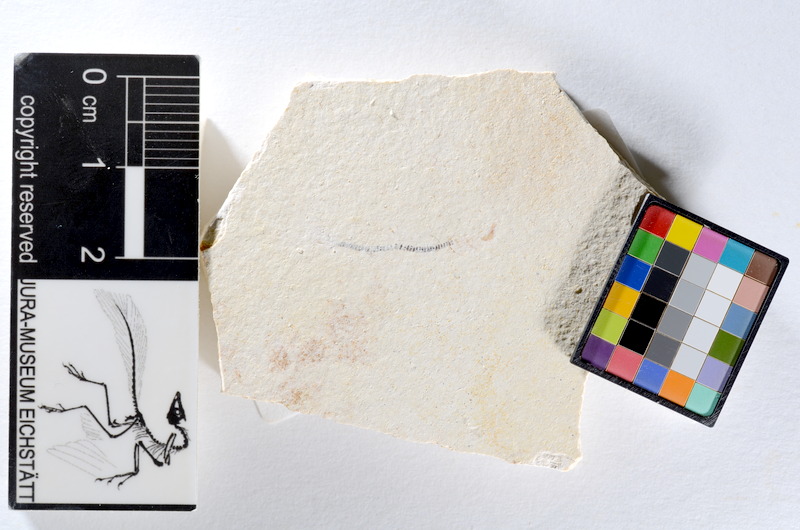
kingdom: Animalia
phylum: Chordata
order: Salmoniformes
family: Orthogonikleithridae
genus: Orthogonikleithrus
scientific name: Orthogonikleithrus hoelli
